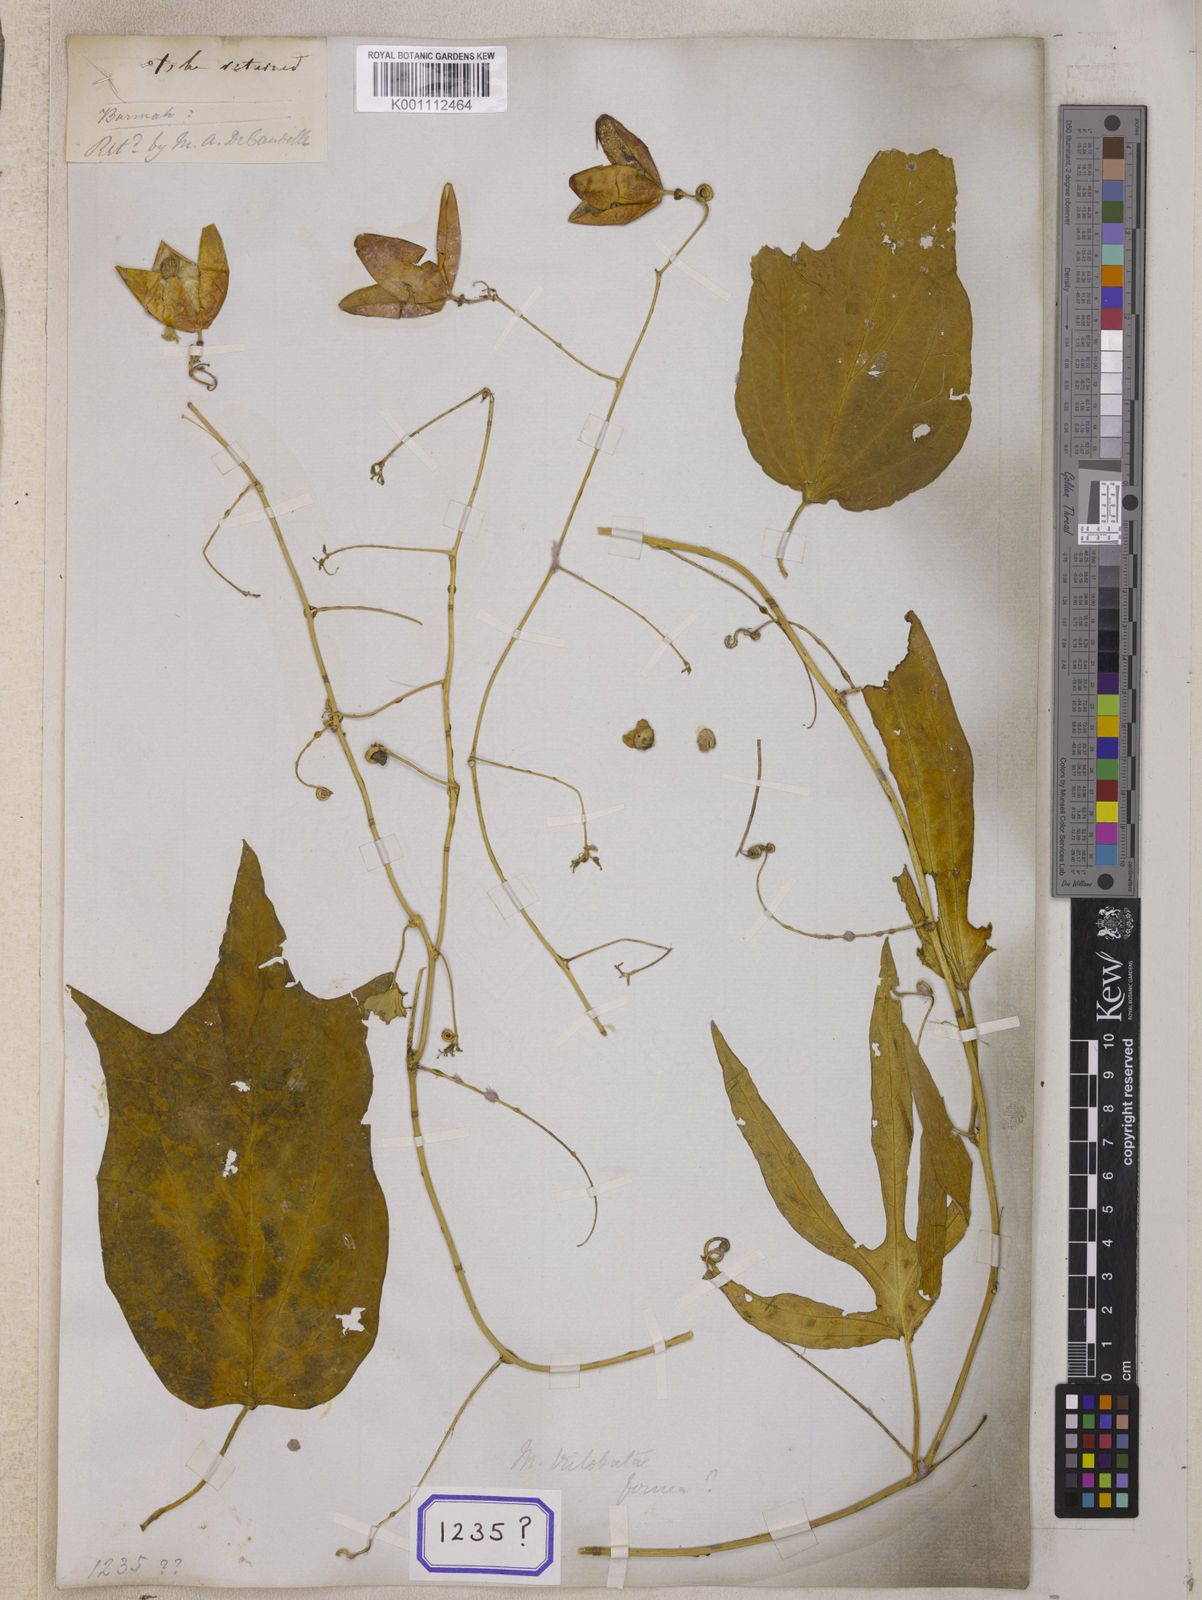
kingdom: Plantae
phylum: Tracheophyta
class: Magnoliopsida
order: Malpighiales
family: Passifloraceae
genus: Adenia
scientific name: Adenia Modecca furfuracea
